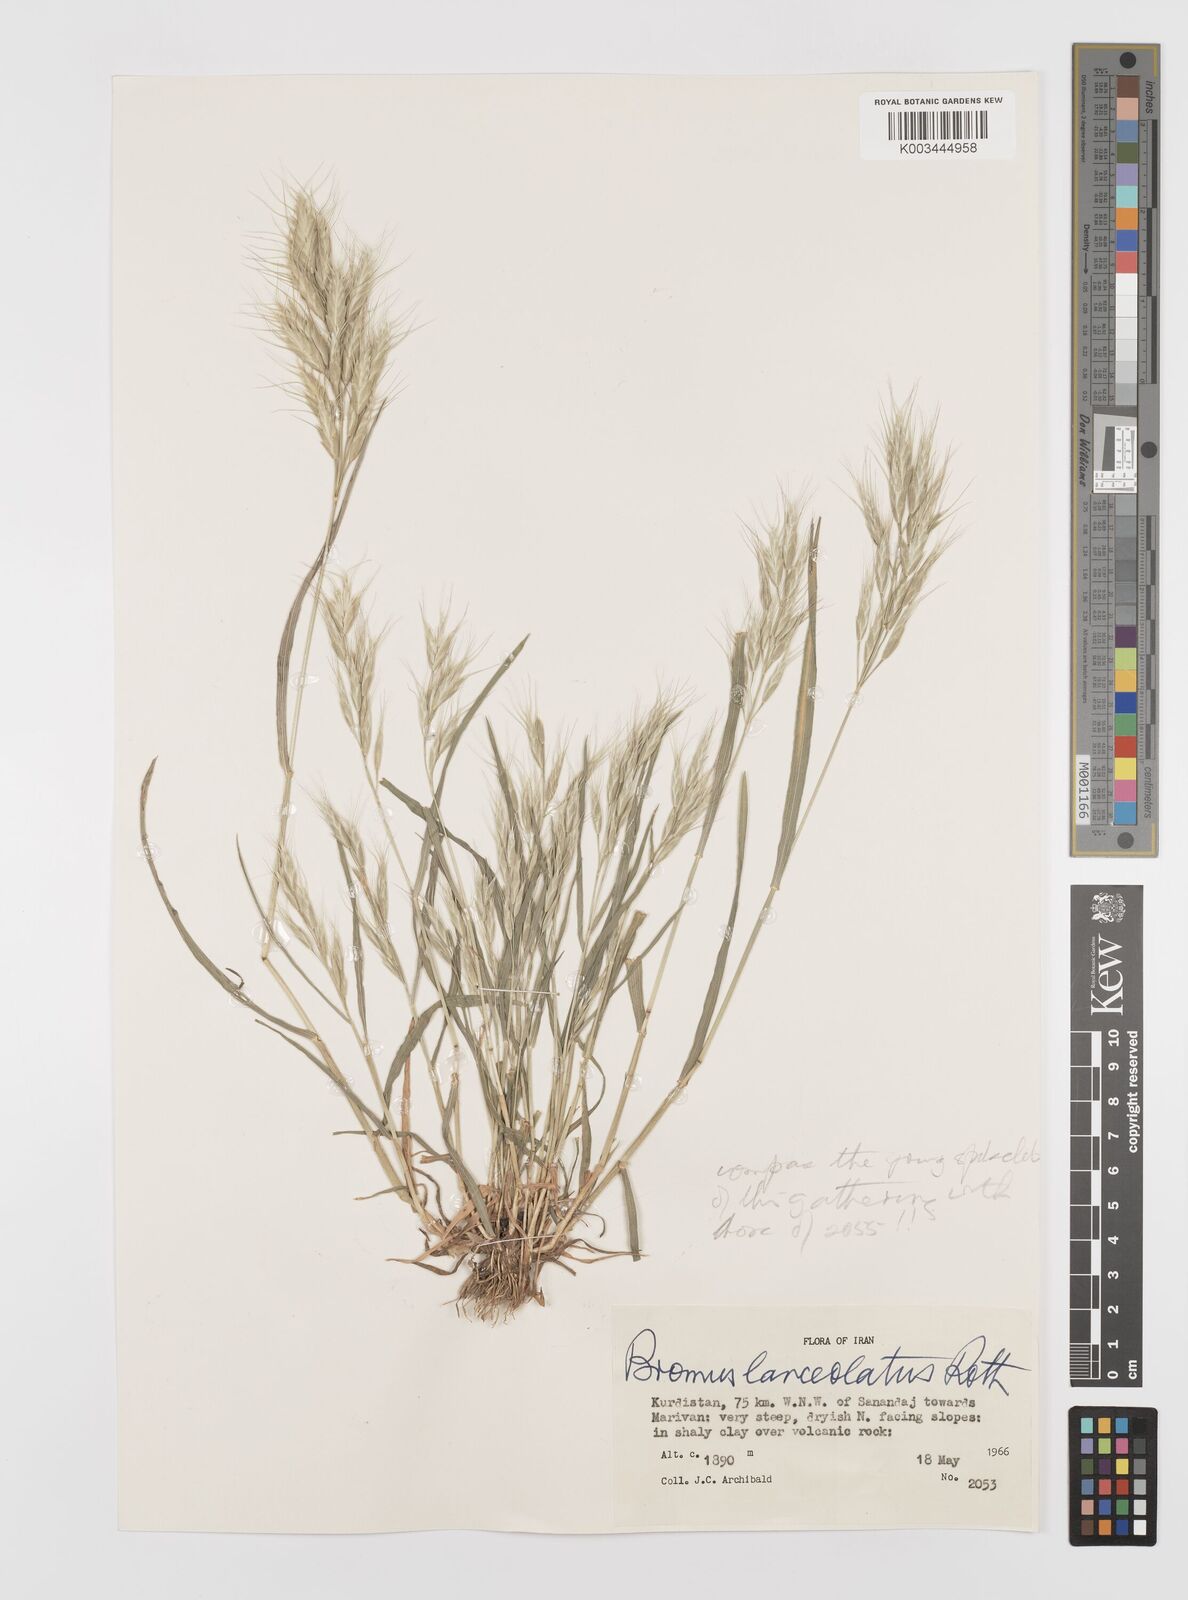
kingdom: Plantae
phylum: Tracheophyta
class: Liliopsida
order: Poales
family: Poaceae
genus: Bromus
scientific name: Bromus lanceolatus
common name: Mediterranean brome
